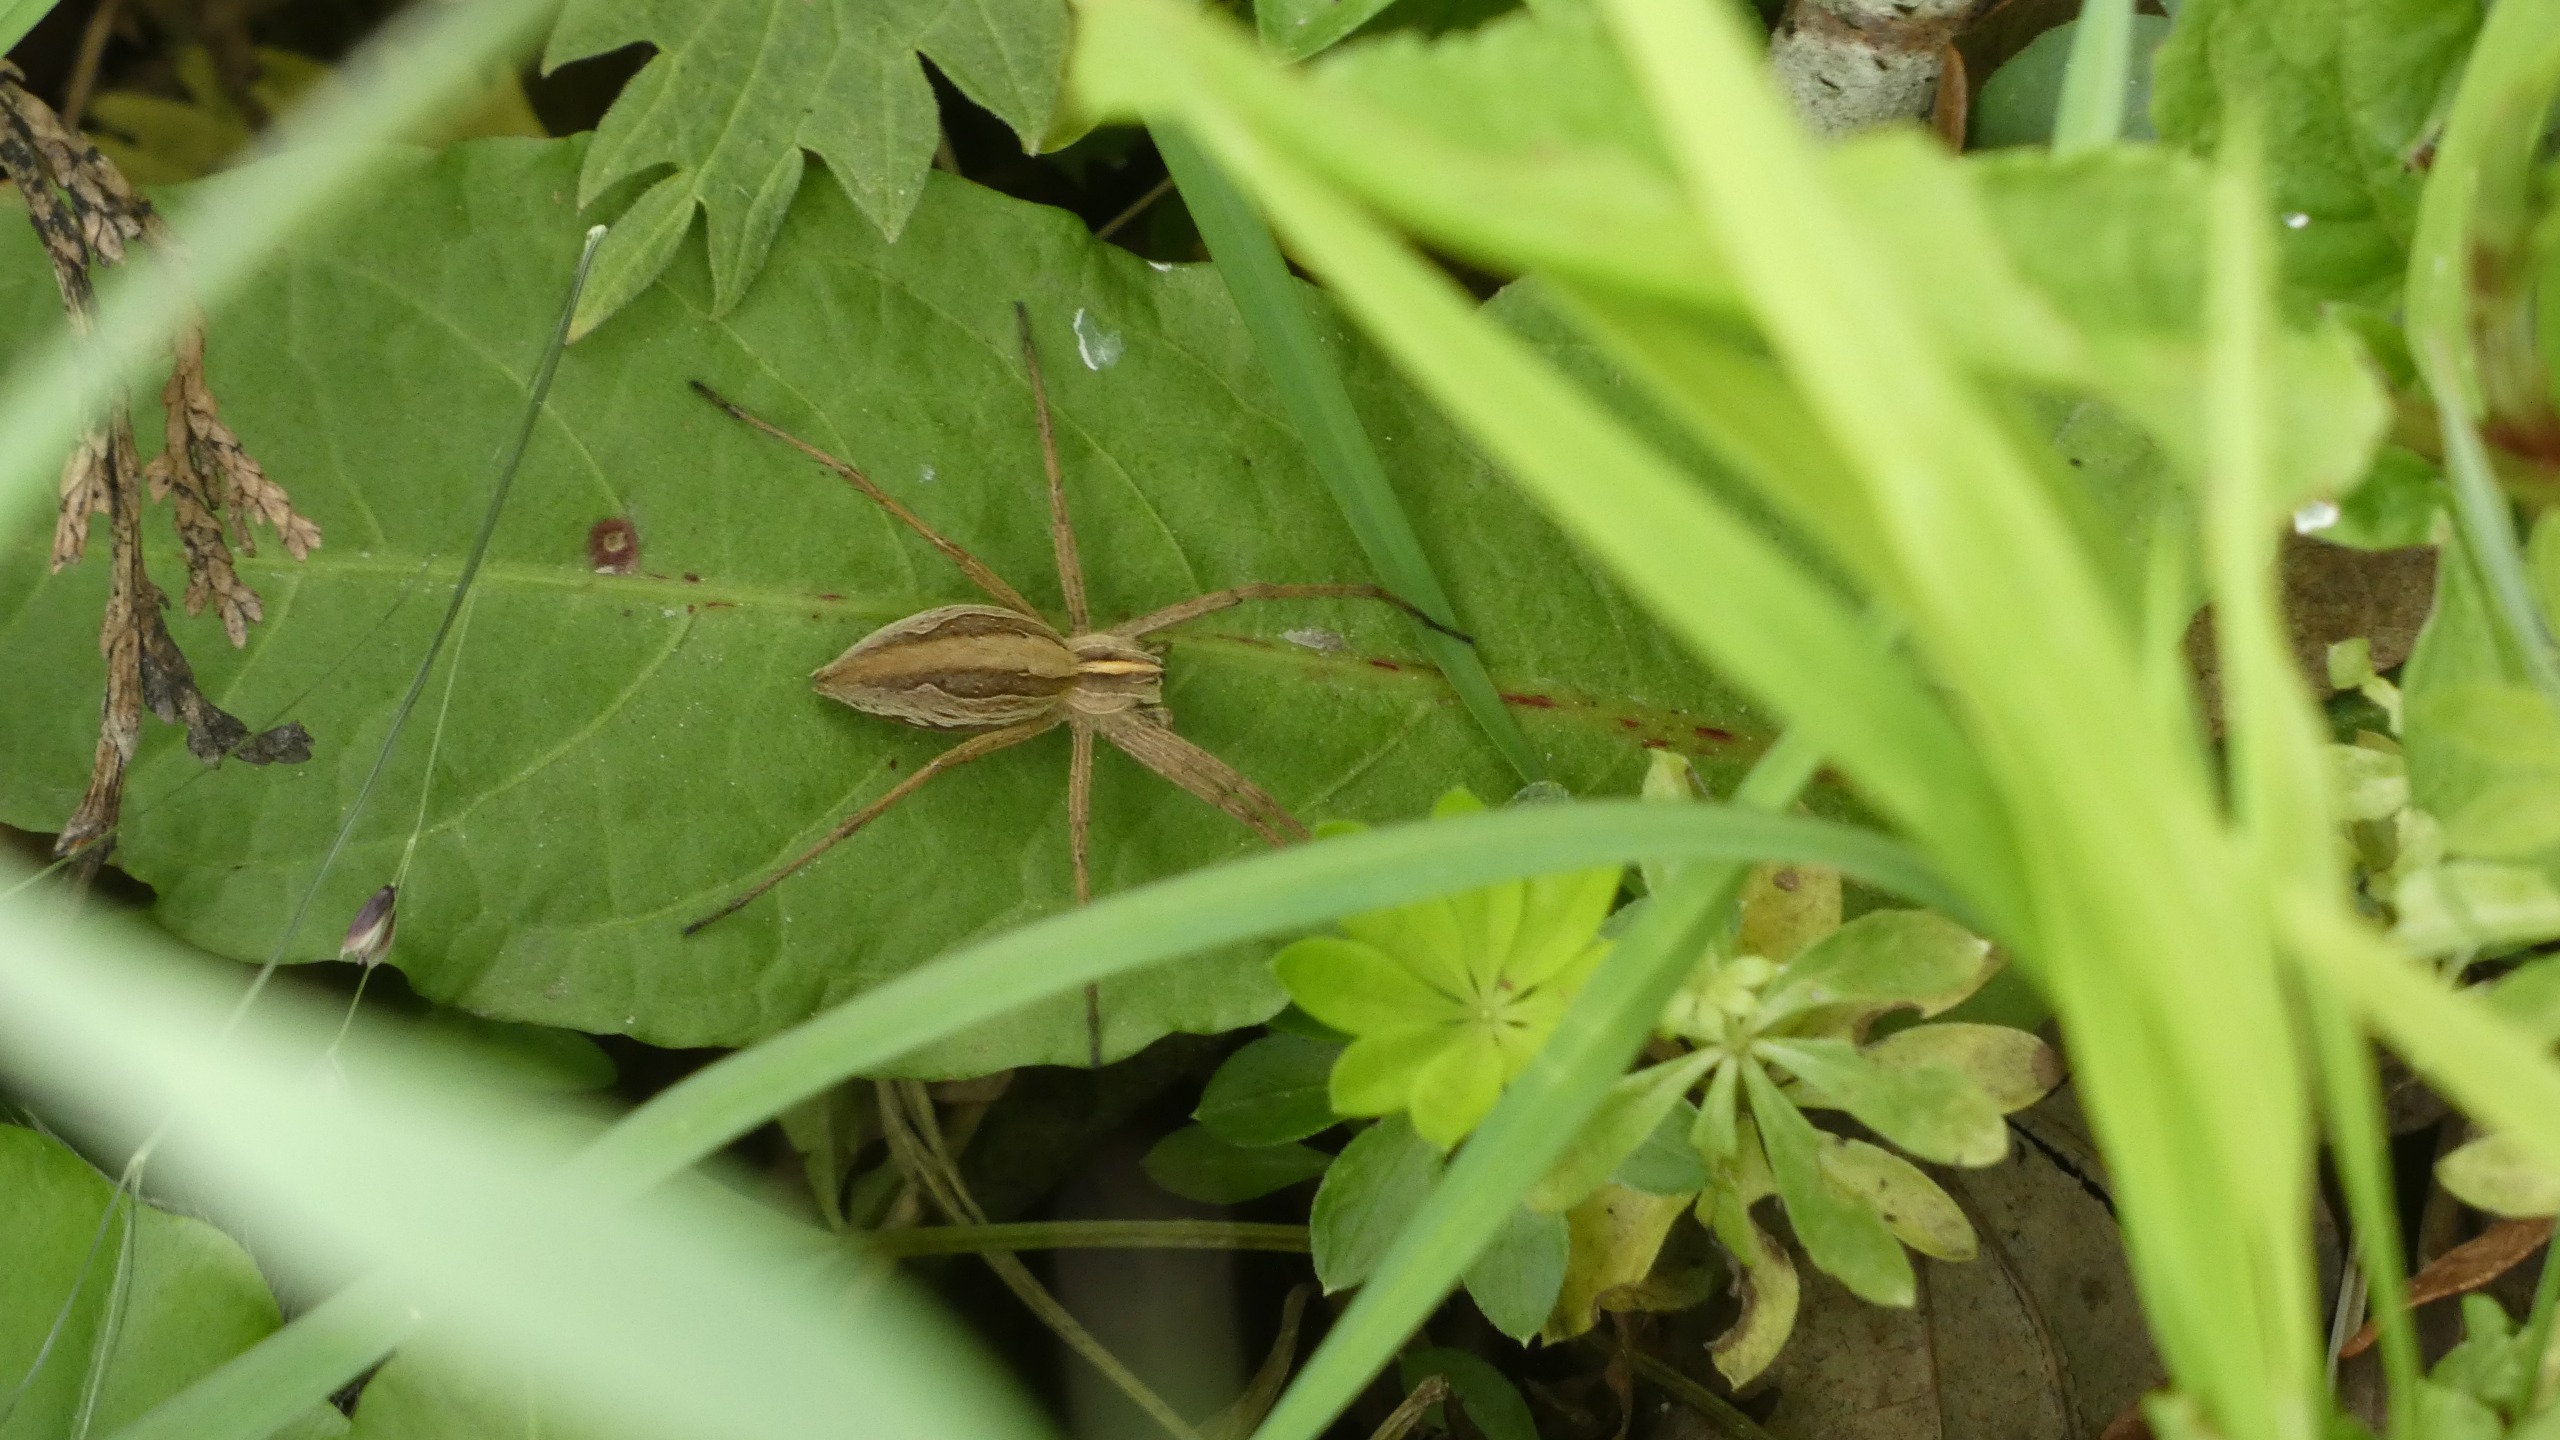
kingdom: Animalia
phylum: Arthropoda
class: Arachnida
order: Araneae
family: Pisauridae
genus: Pisaura
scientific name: Pisaura mirabilis
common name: Almindelig rovedderkop
